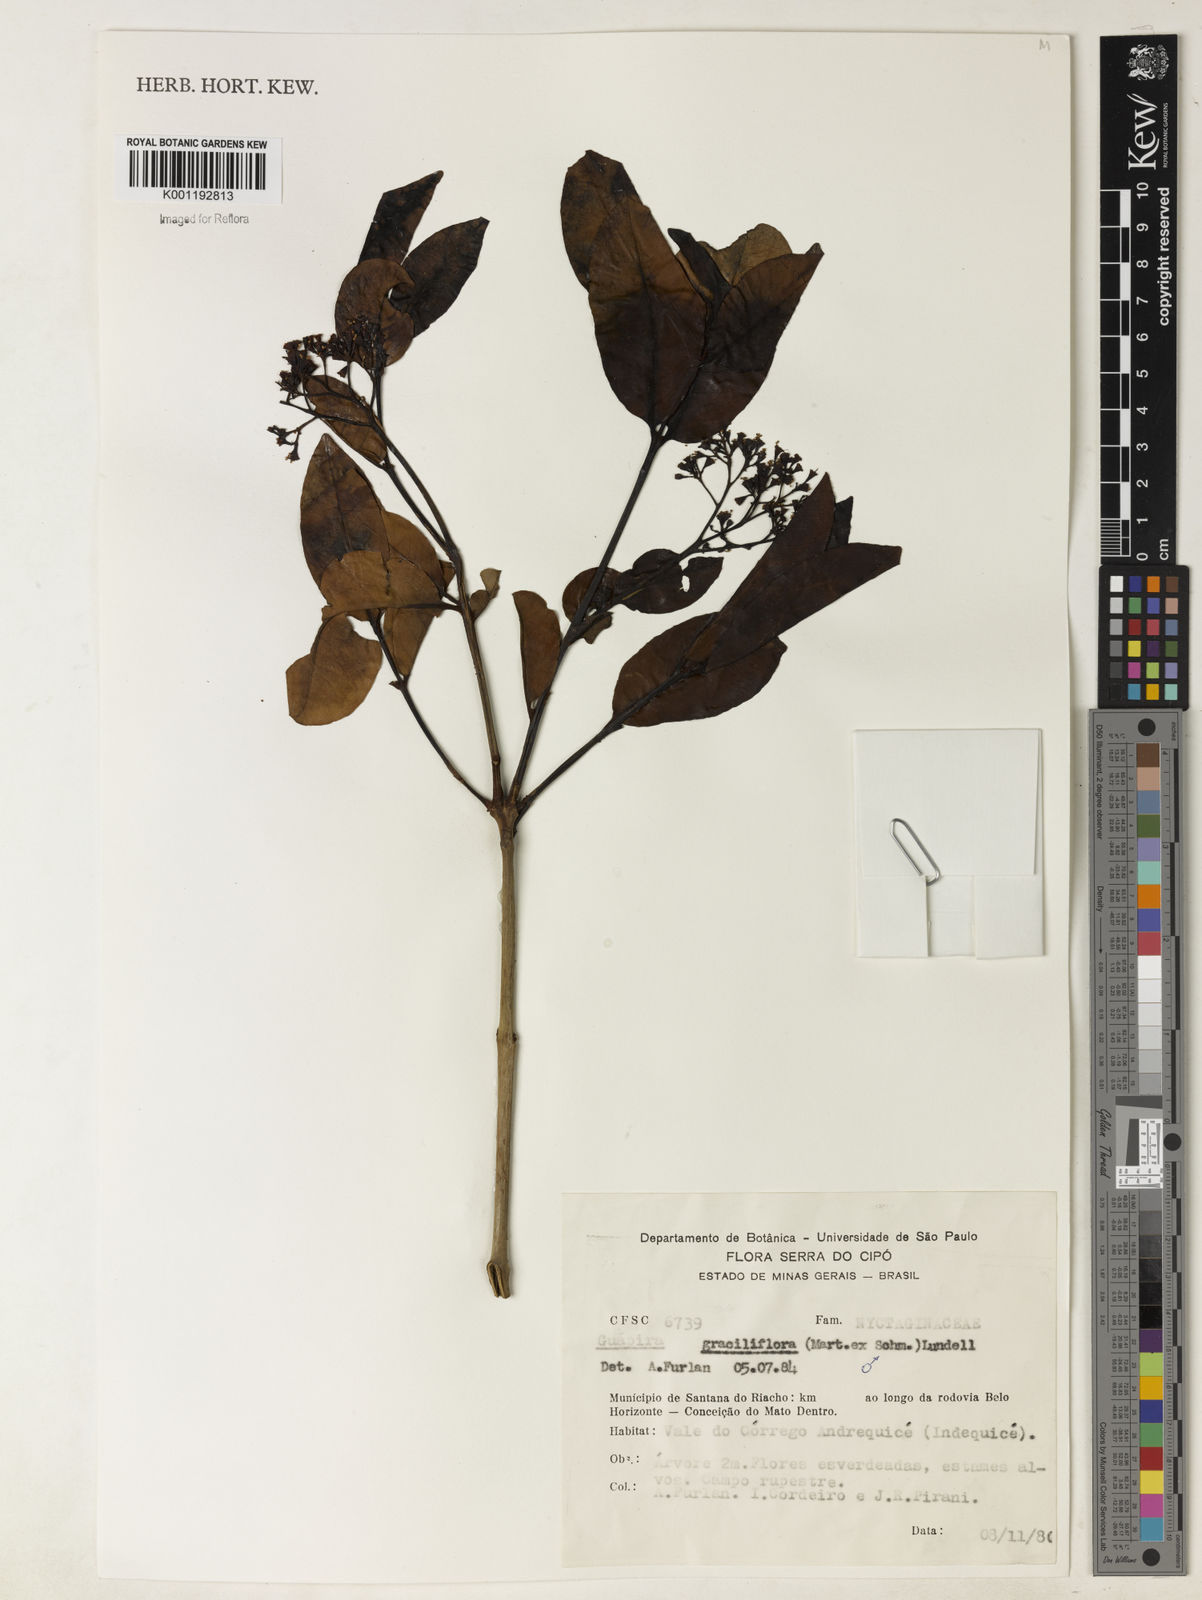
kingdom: Plantae
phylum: Tracheophyta
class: Magnoliopsida
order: Caryophyllales
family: Nyctaginaceae
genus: Guapira
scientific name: Guapira graciliflora
